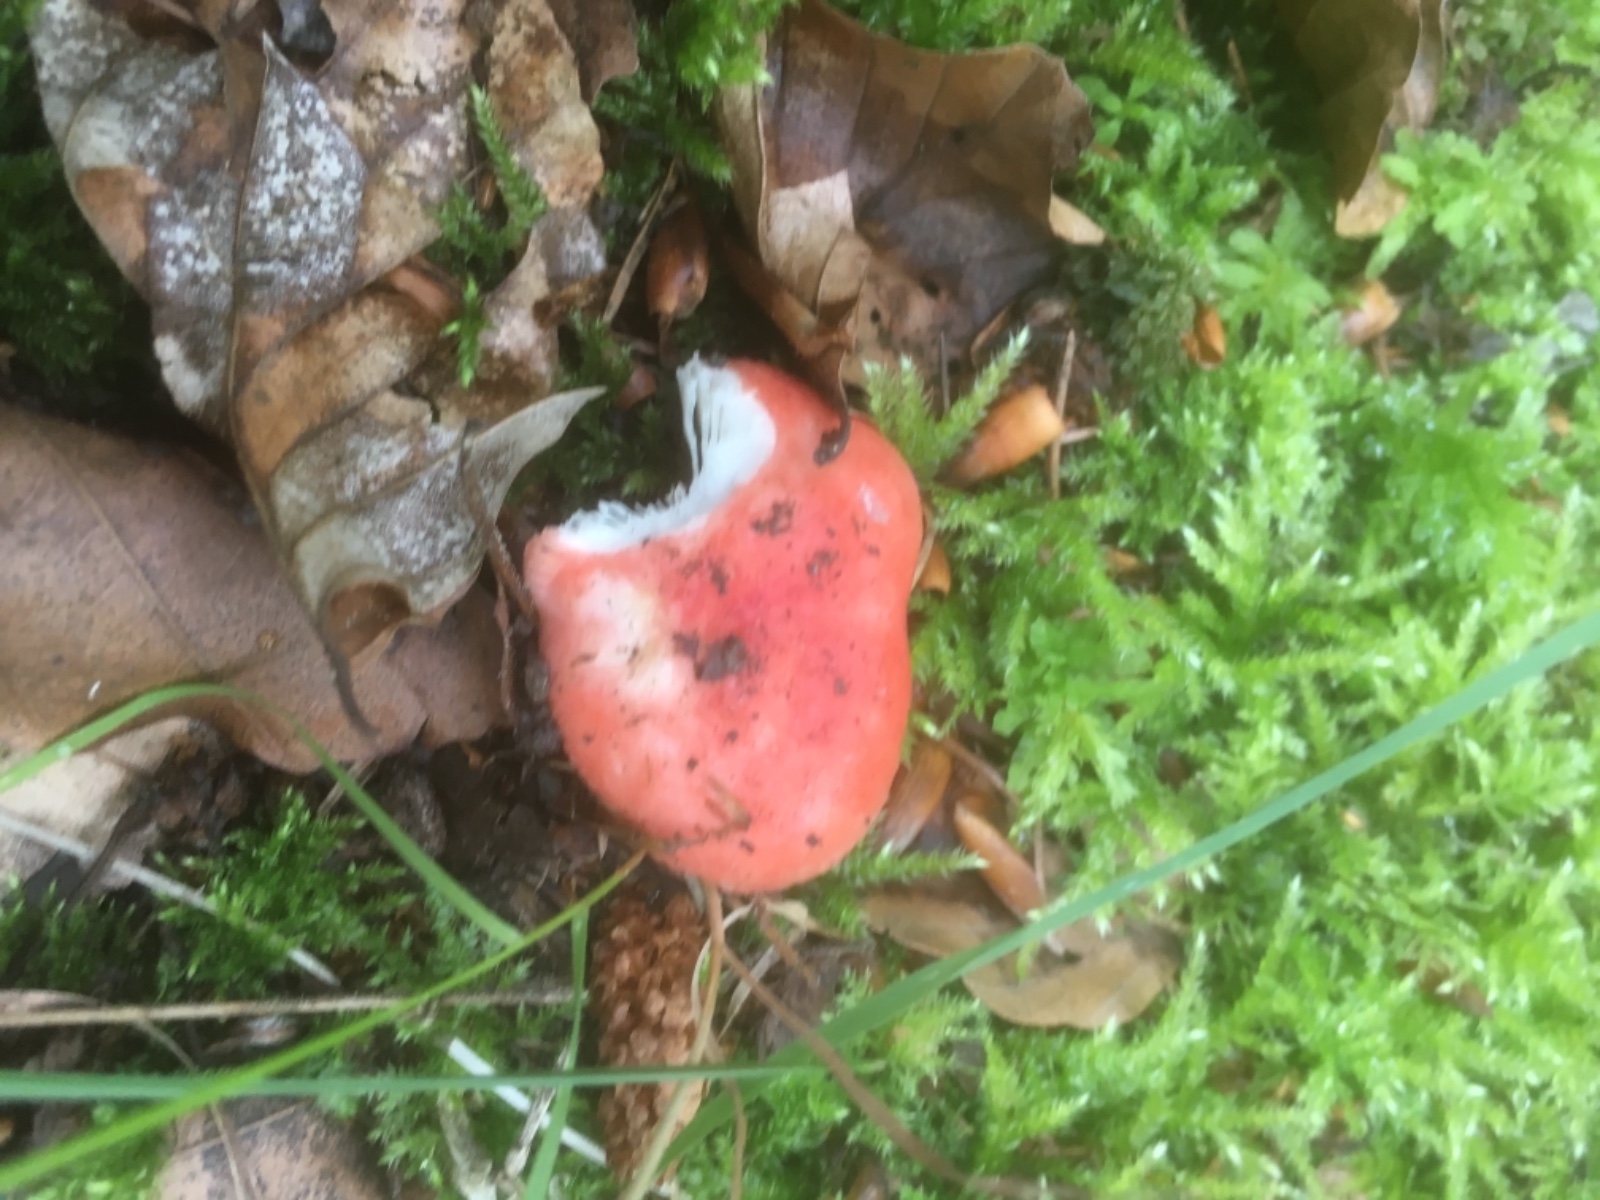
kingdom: Fungi
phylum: Basidiomycota
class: Agaricomycetes
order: Russulales
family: Russulaceae
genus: Russula
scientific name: Russula nobilis
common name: lille gift-skørhat
